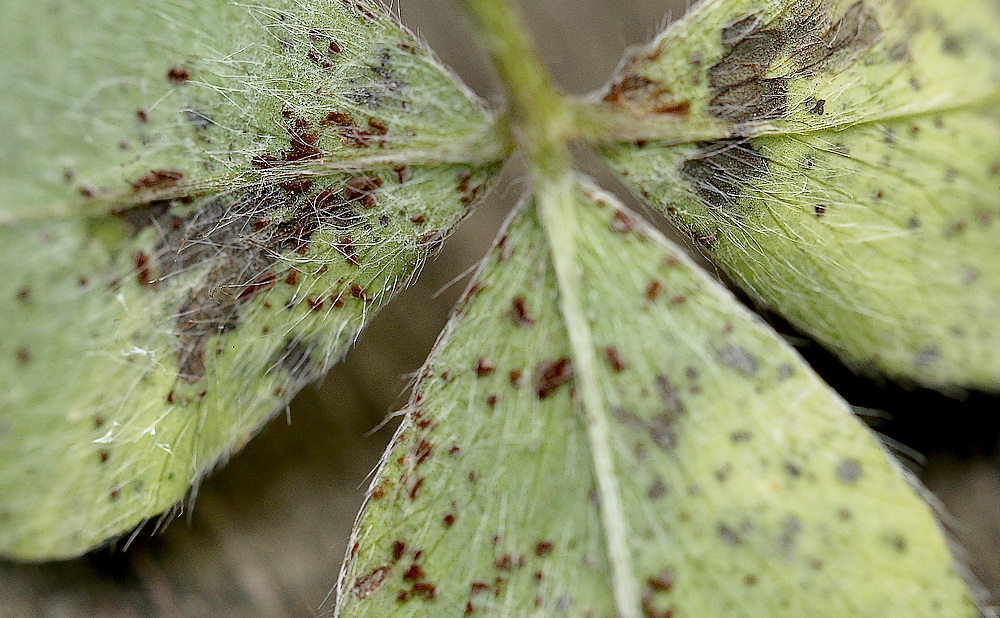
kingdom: Fungi
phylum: Basidiomycota
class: Pucciniomycetes
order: Pucciniales
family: Pucciniaceae
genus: Uromyces
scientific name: Uromyces fallens
